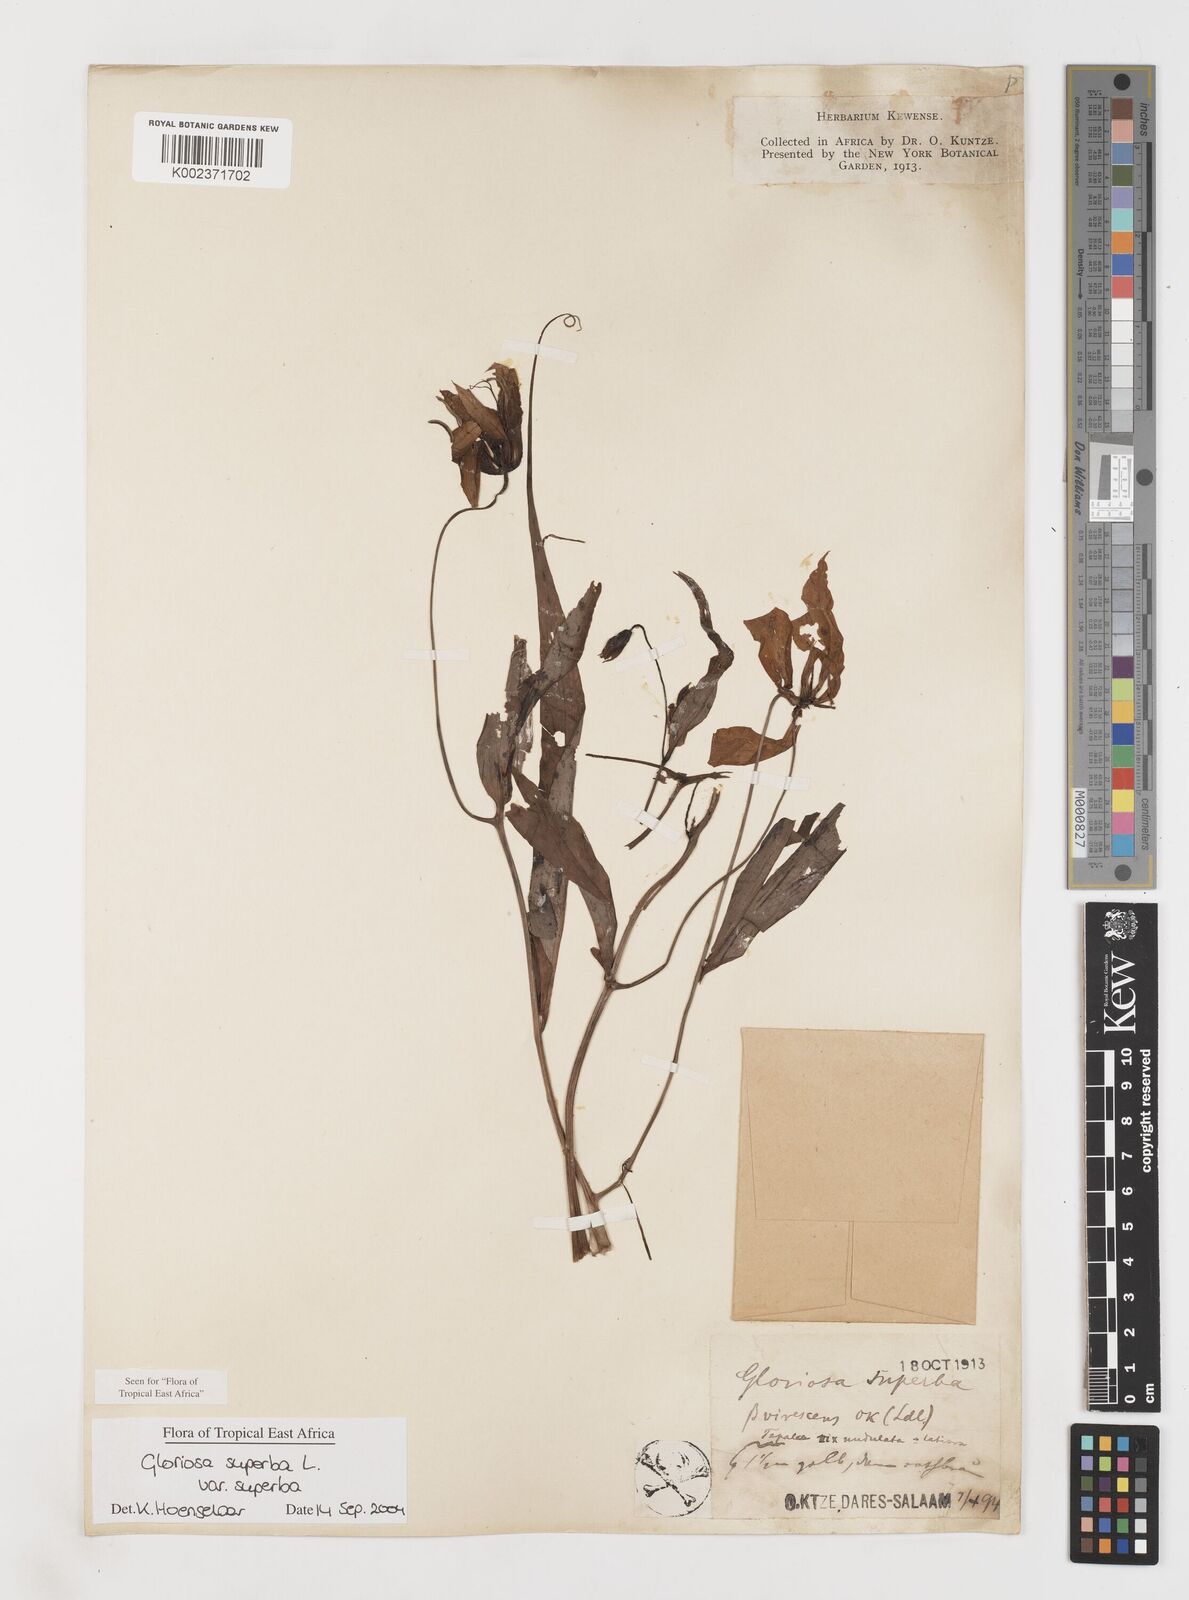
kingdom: Plantae
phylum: Tracheophyta
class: Liliopsida
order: Liliales
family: Colchicaceae
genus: Gloriosa
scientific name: Gloriosa simplex
